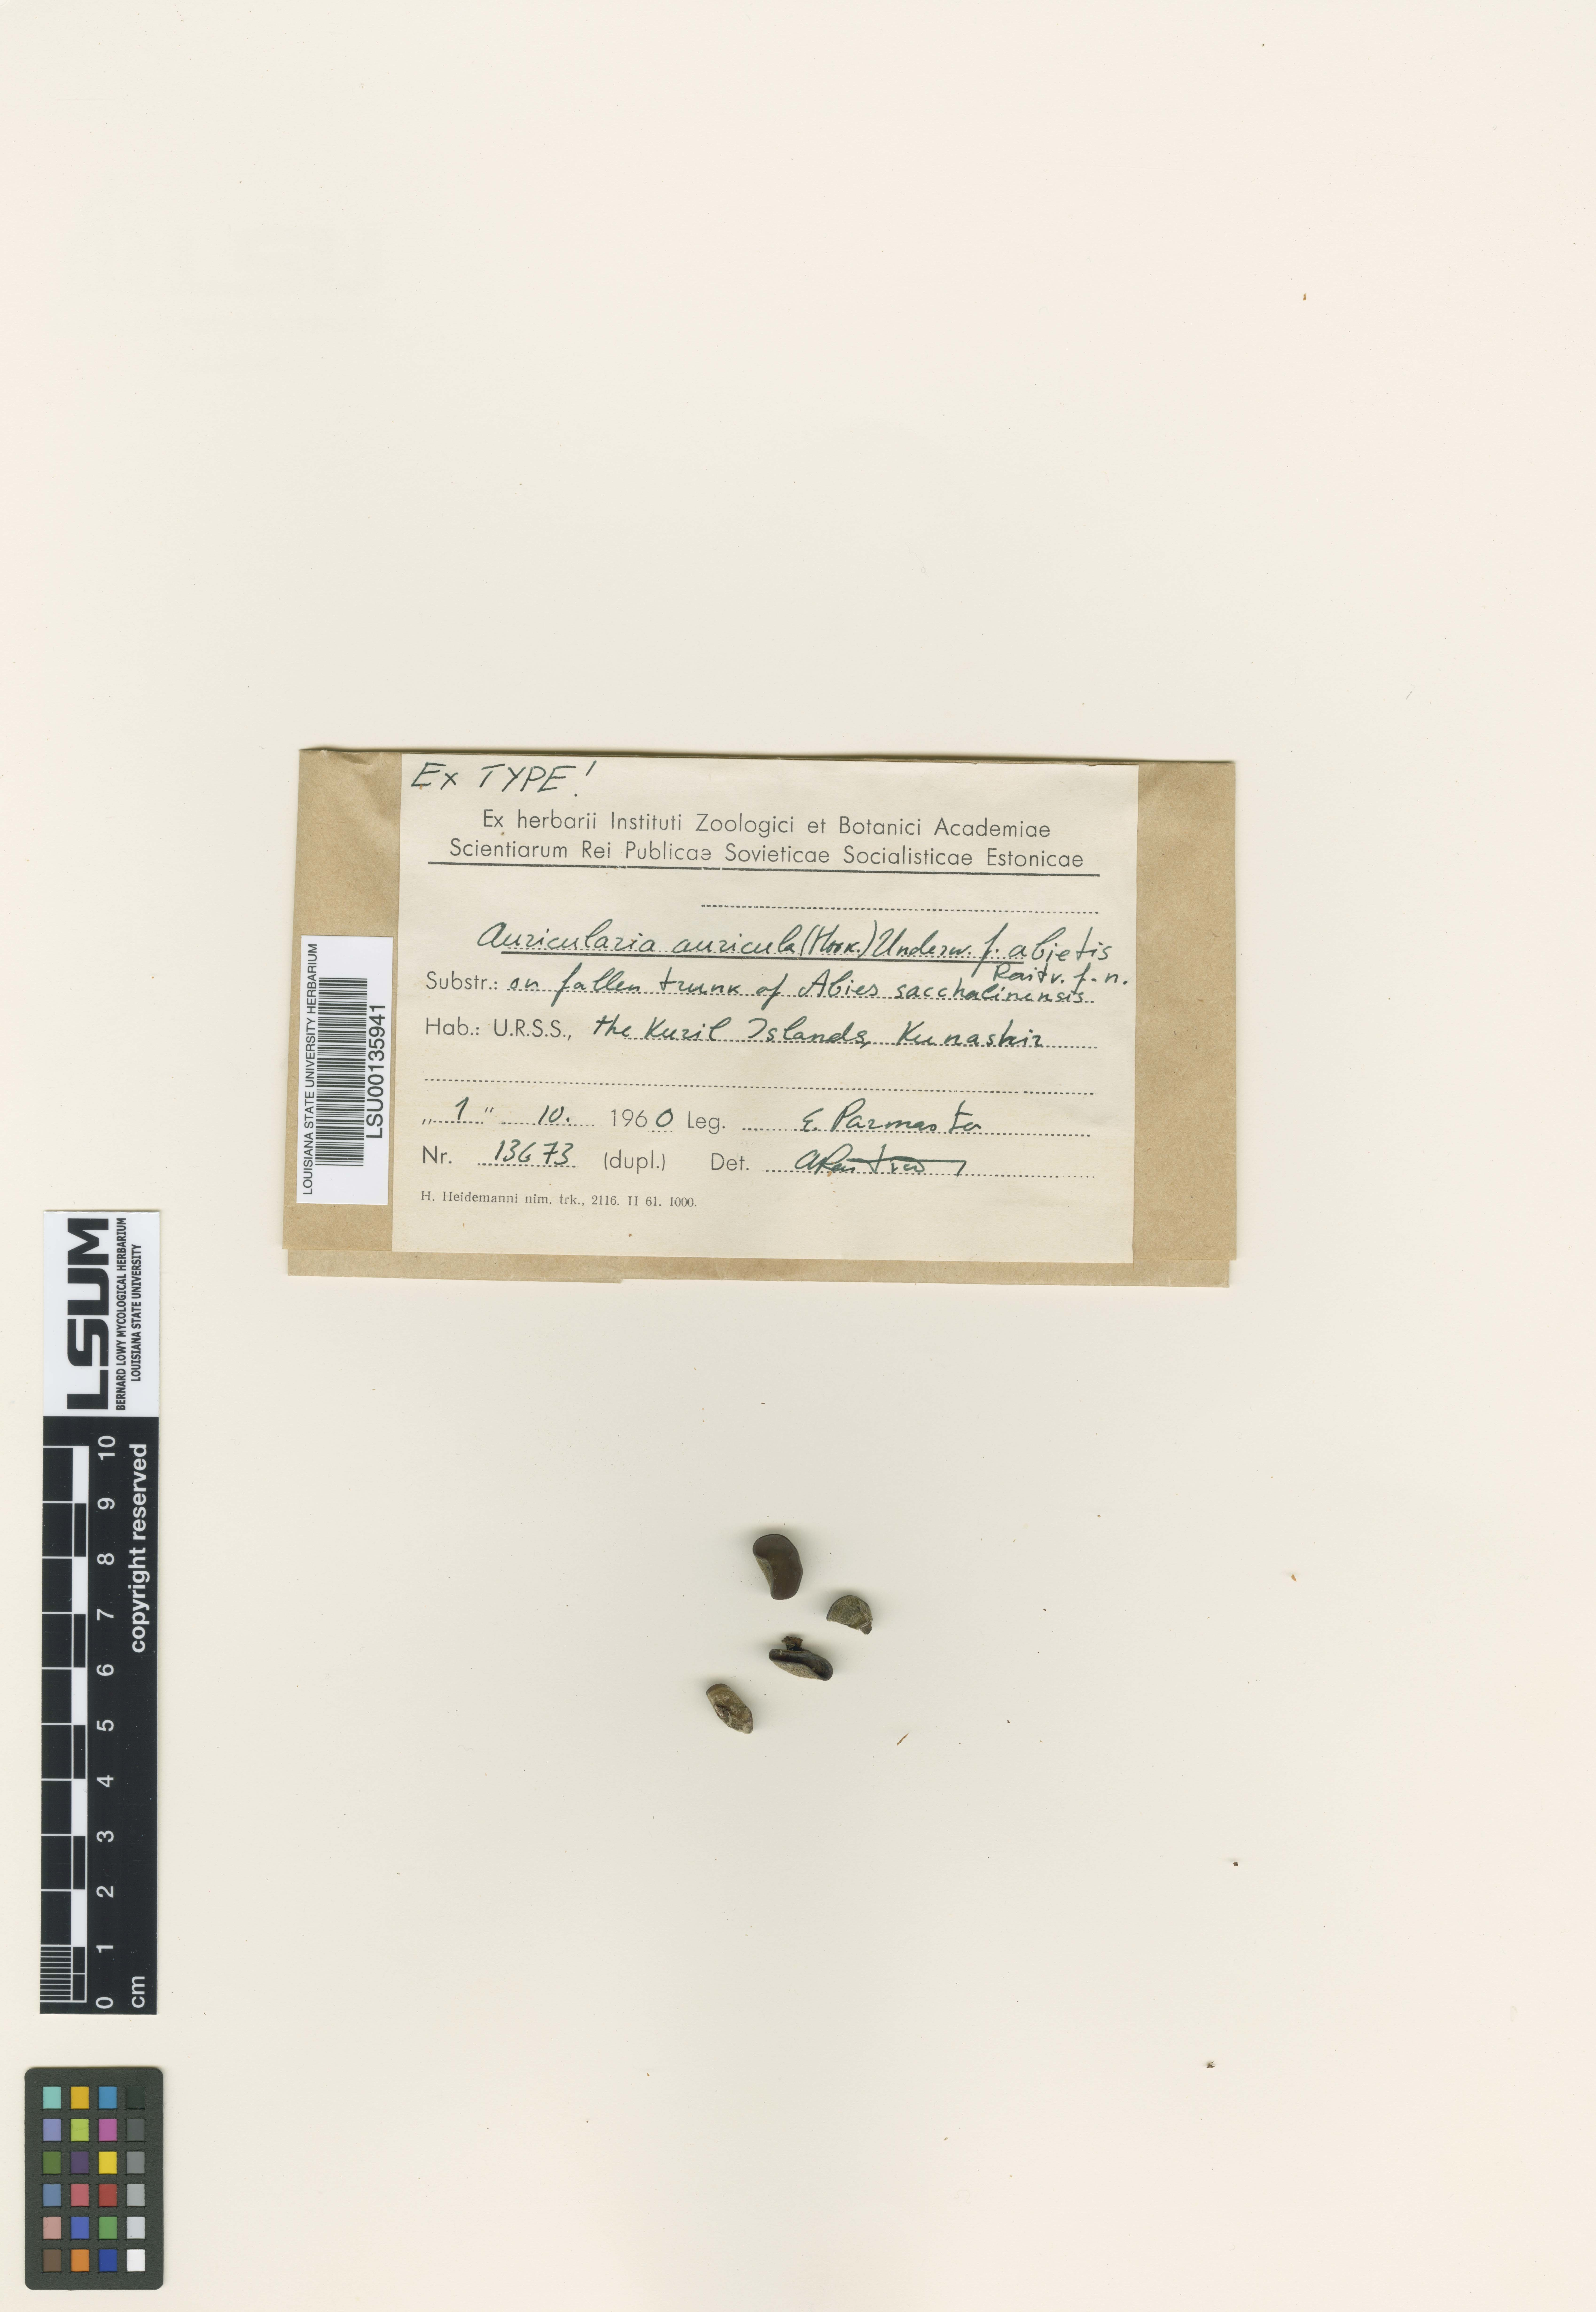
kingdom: Fungi
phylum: Basidiomycota
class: Agaricomycetes
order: Auriculariales
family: Auriculariaceae
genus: Auricularia
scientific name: Auricularia auricula-judae
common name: Jelly ear
